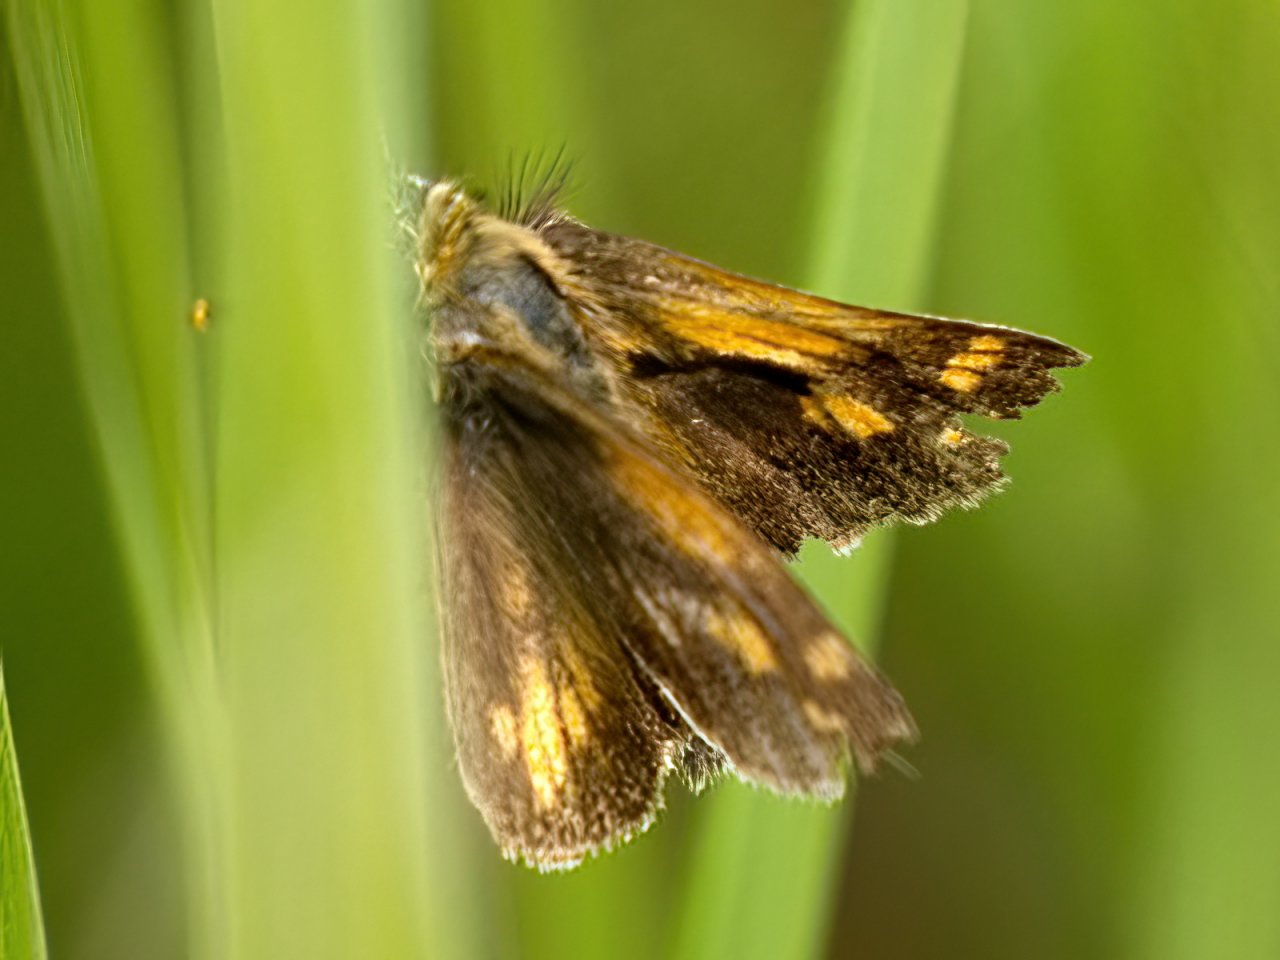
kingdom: Animalia
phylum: Arthropoda
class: Insecta
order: Lepidoptera
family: Hesperiidae
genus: Polites
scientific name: Polites coras
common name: Peck's Skipper
